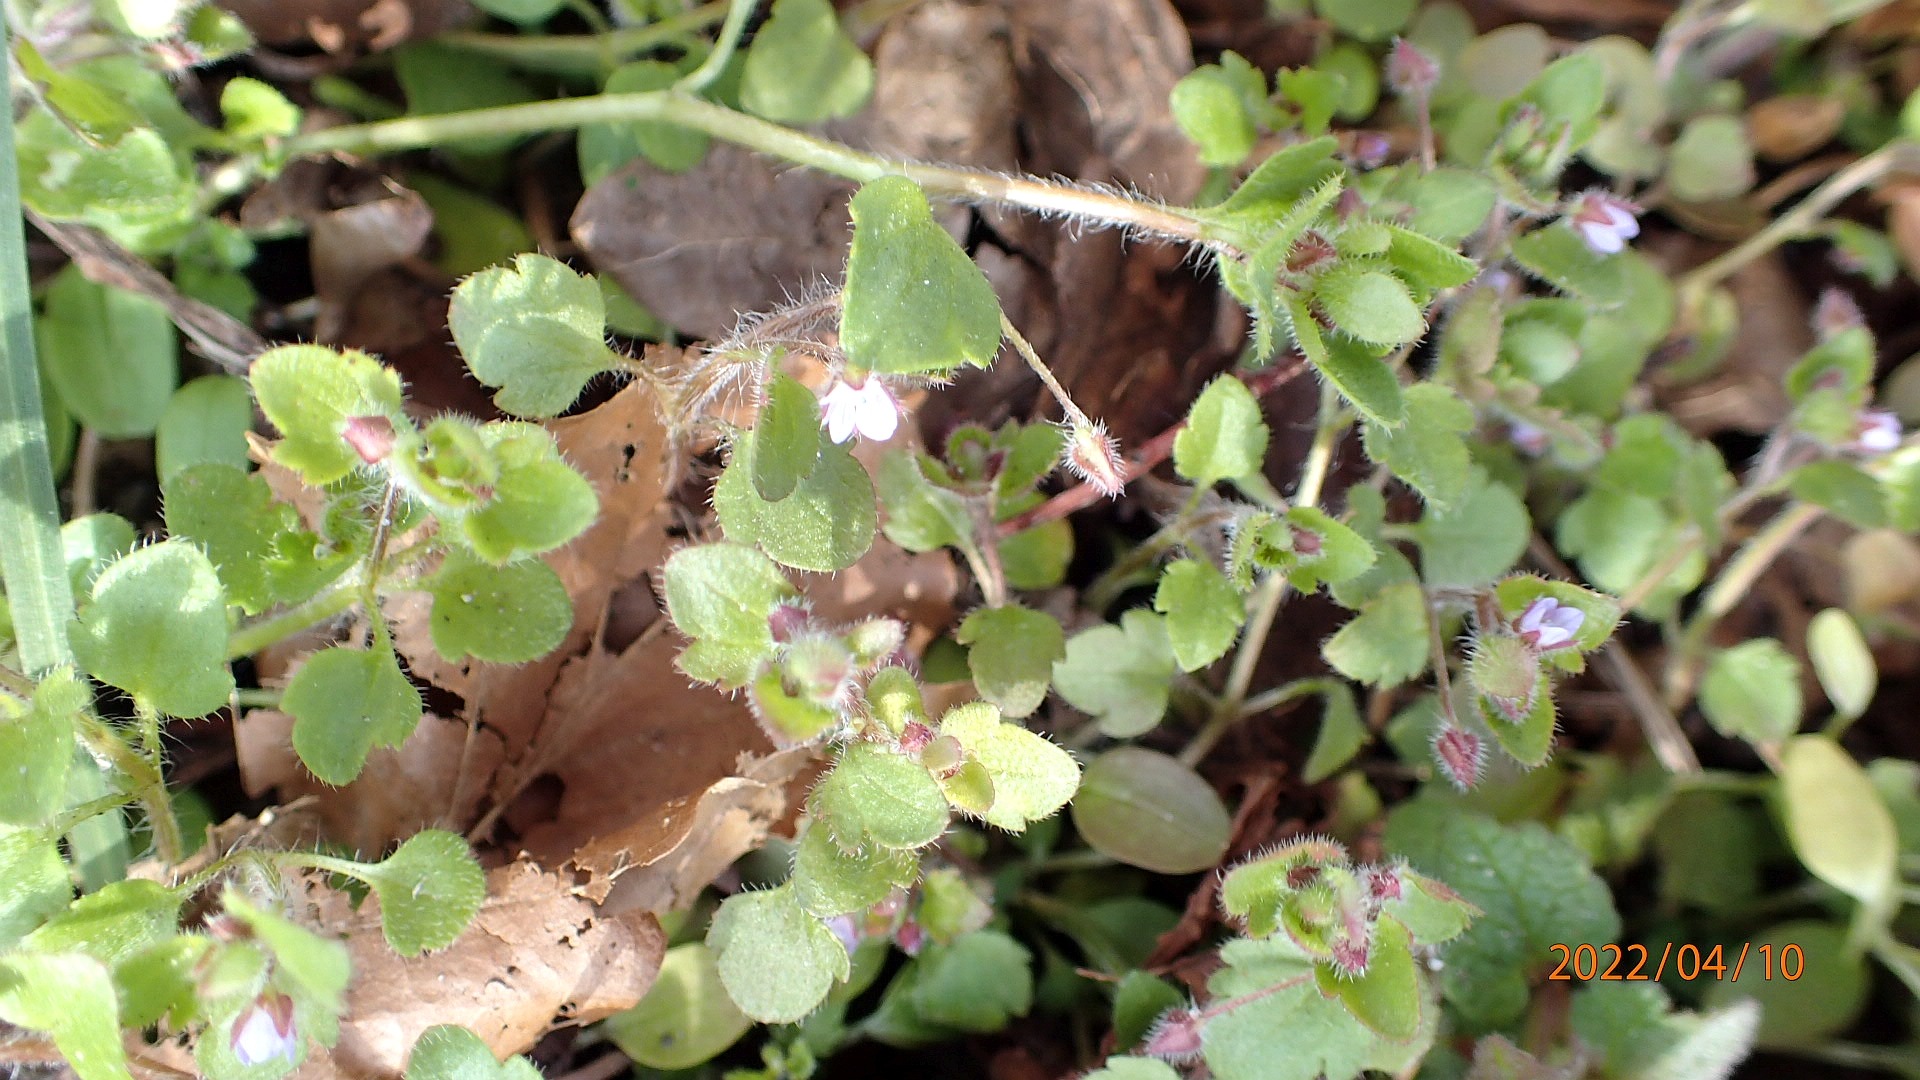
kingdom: Plantae
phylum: Tracheophyta
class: Magnoliopsida
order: Lamiales
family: Plantaginaceae
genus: Veronica
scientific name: Veronica sublobata
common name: Krat-ærenpris
